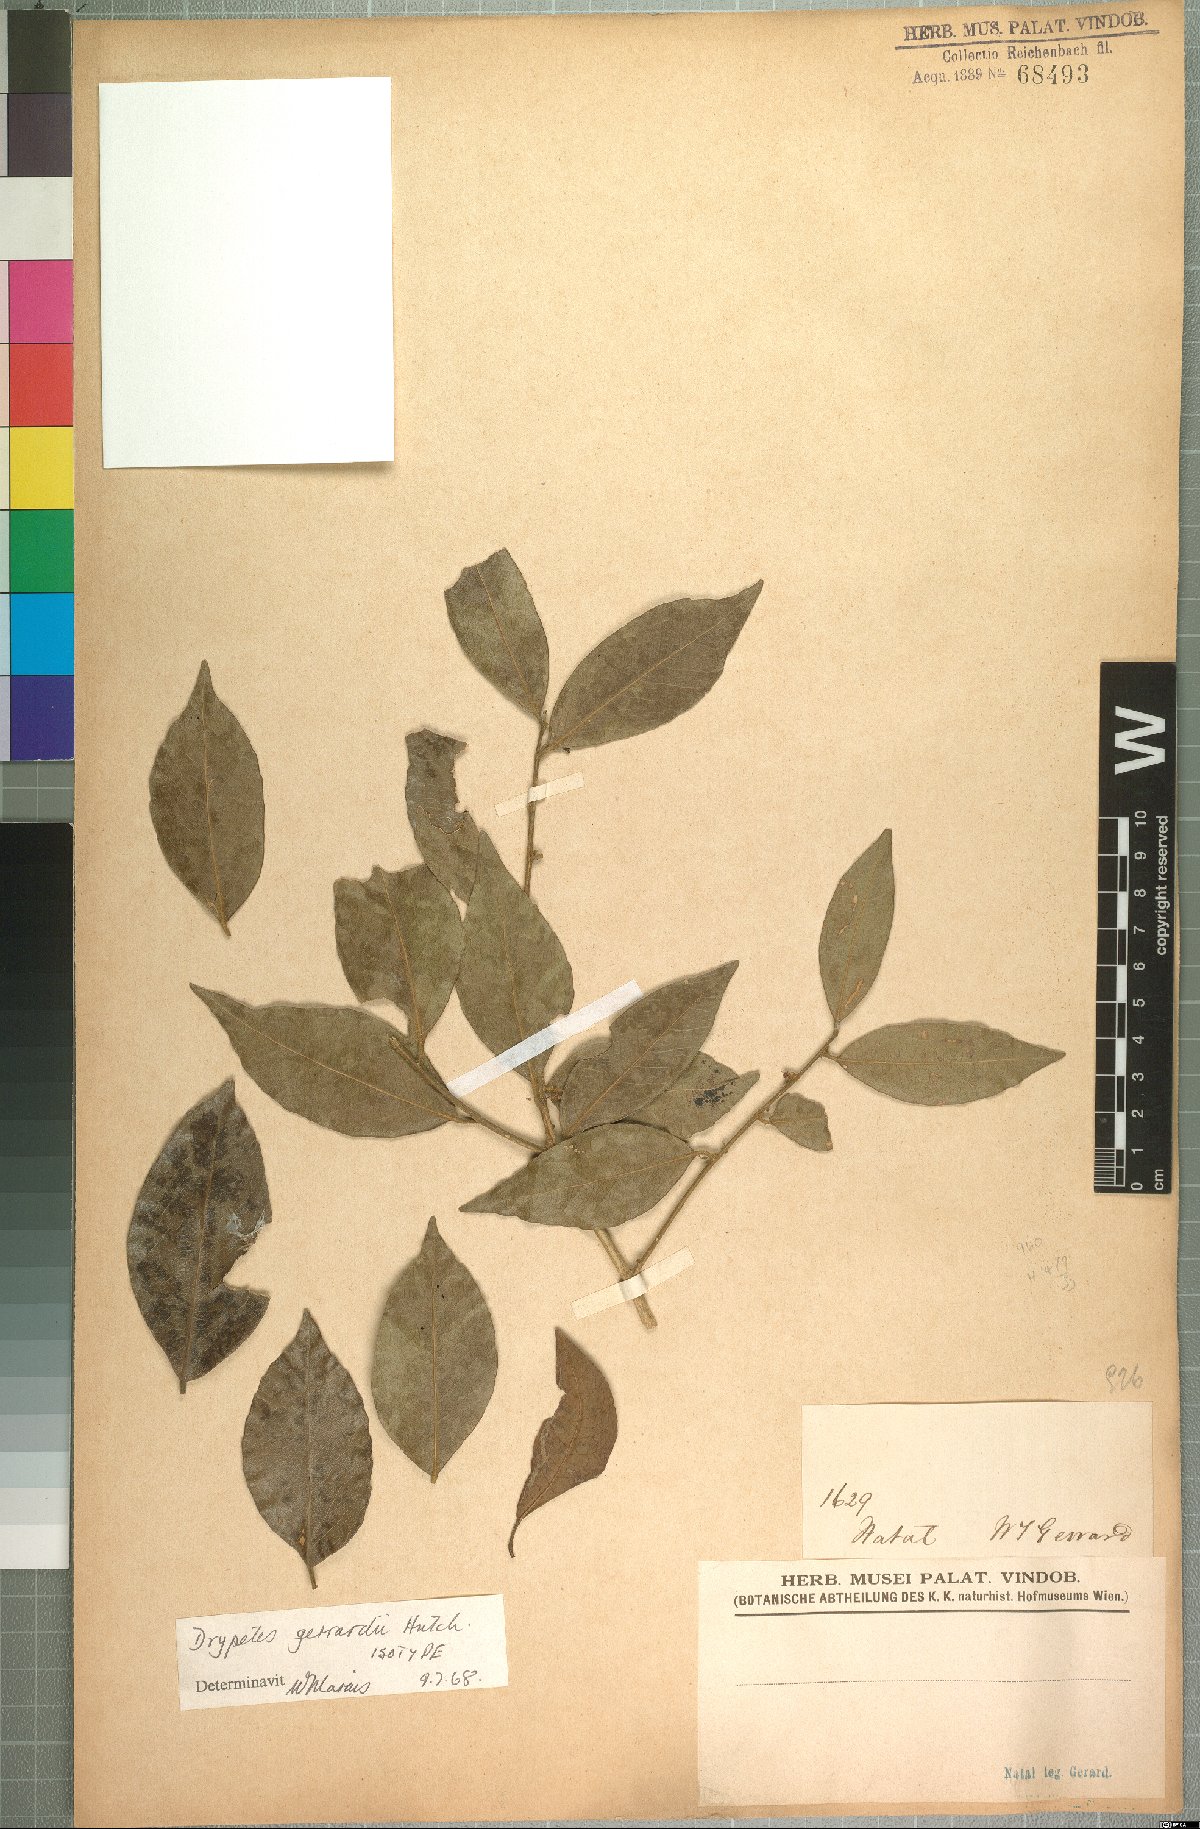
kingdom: Plantae
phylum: Tracheophyta
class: Magnoliopsida
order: Malpighiales
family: Putranjivaceae
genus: Drypetes
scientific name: Drypetes gerrardii
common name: Forest ironplum
